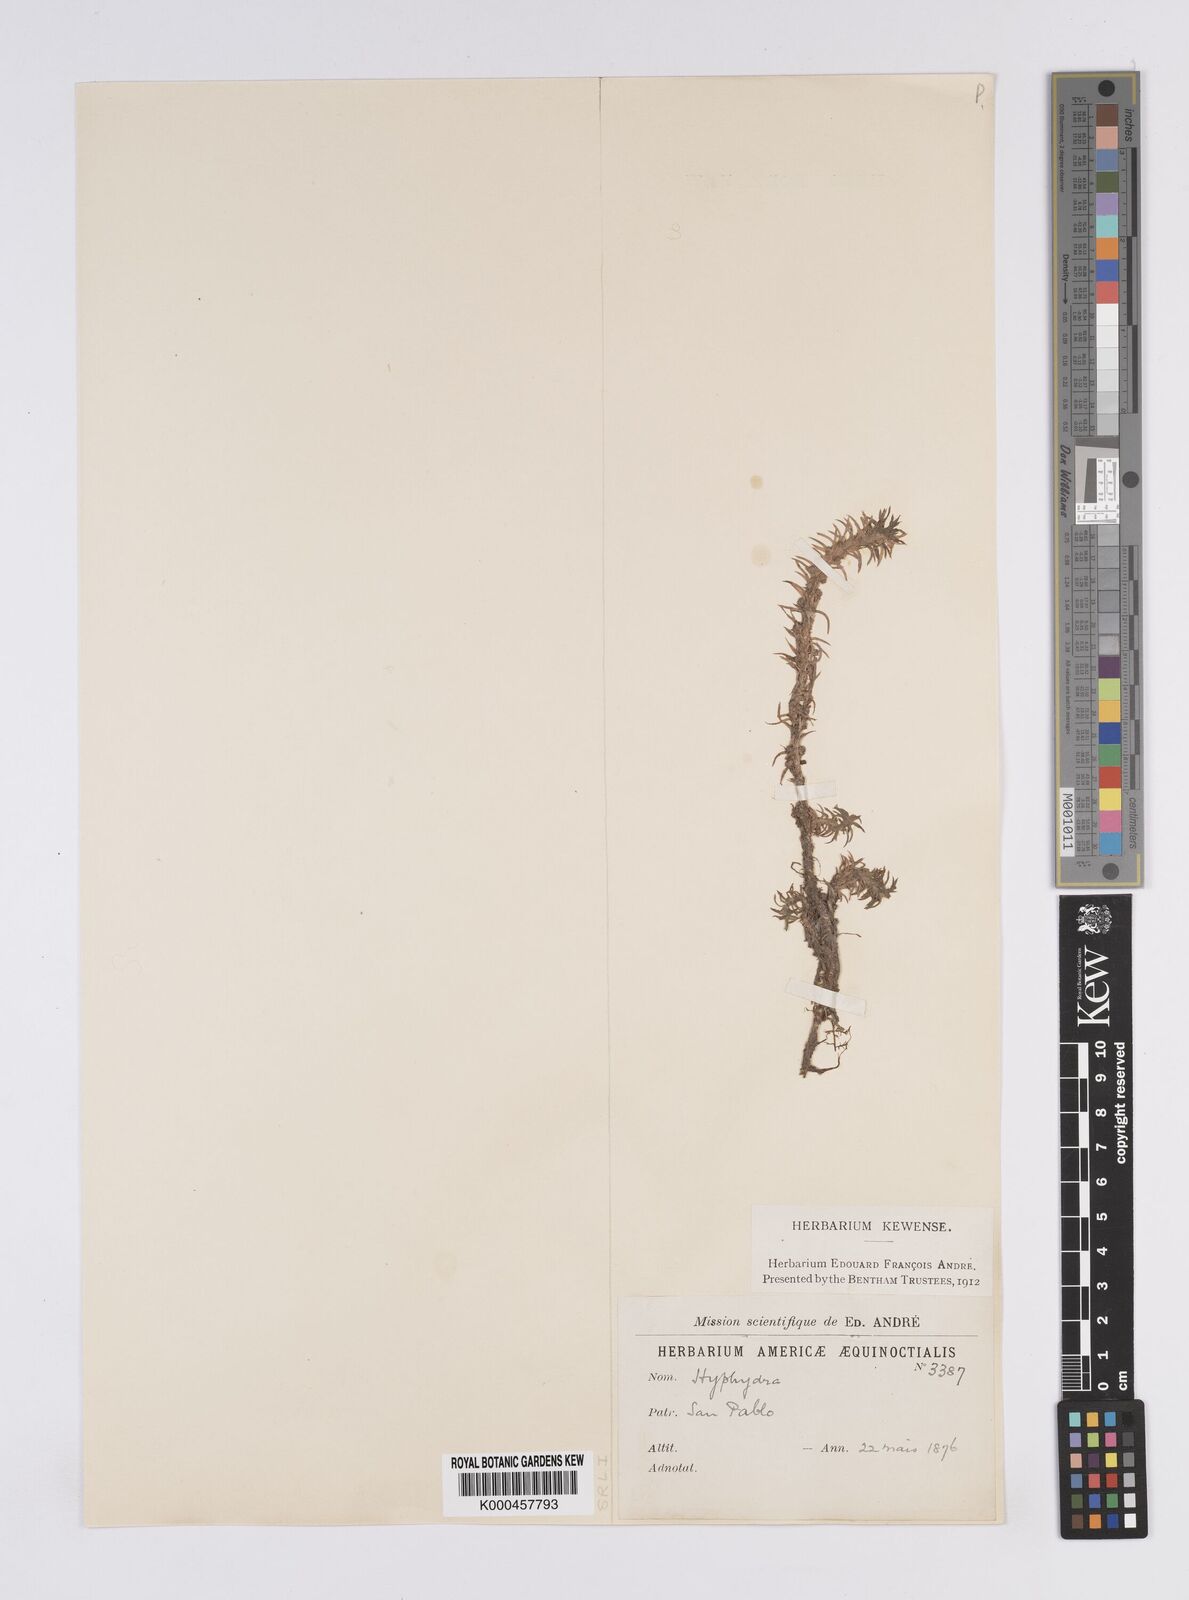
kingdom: Plantae
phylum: Tracheophyta
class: Liliopsida
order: Poales
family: Eriocaulaceae
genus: Paepalanthus
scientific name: Paepalanthus fluviatilis
